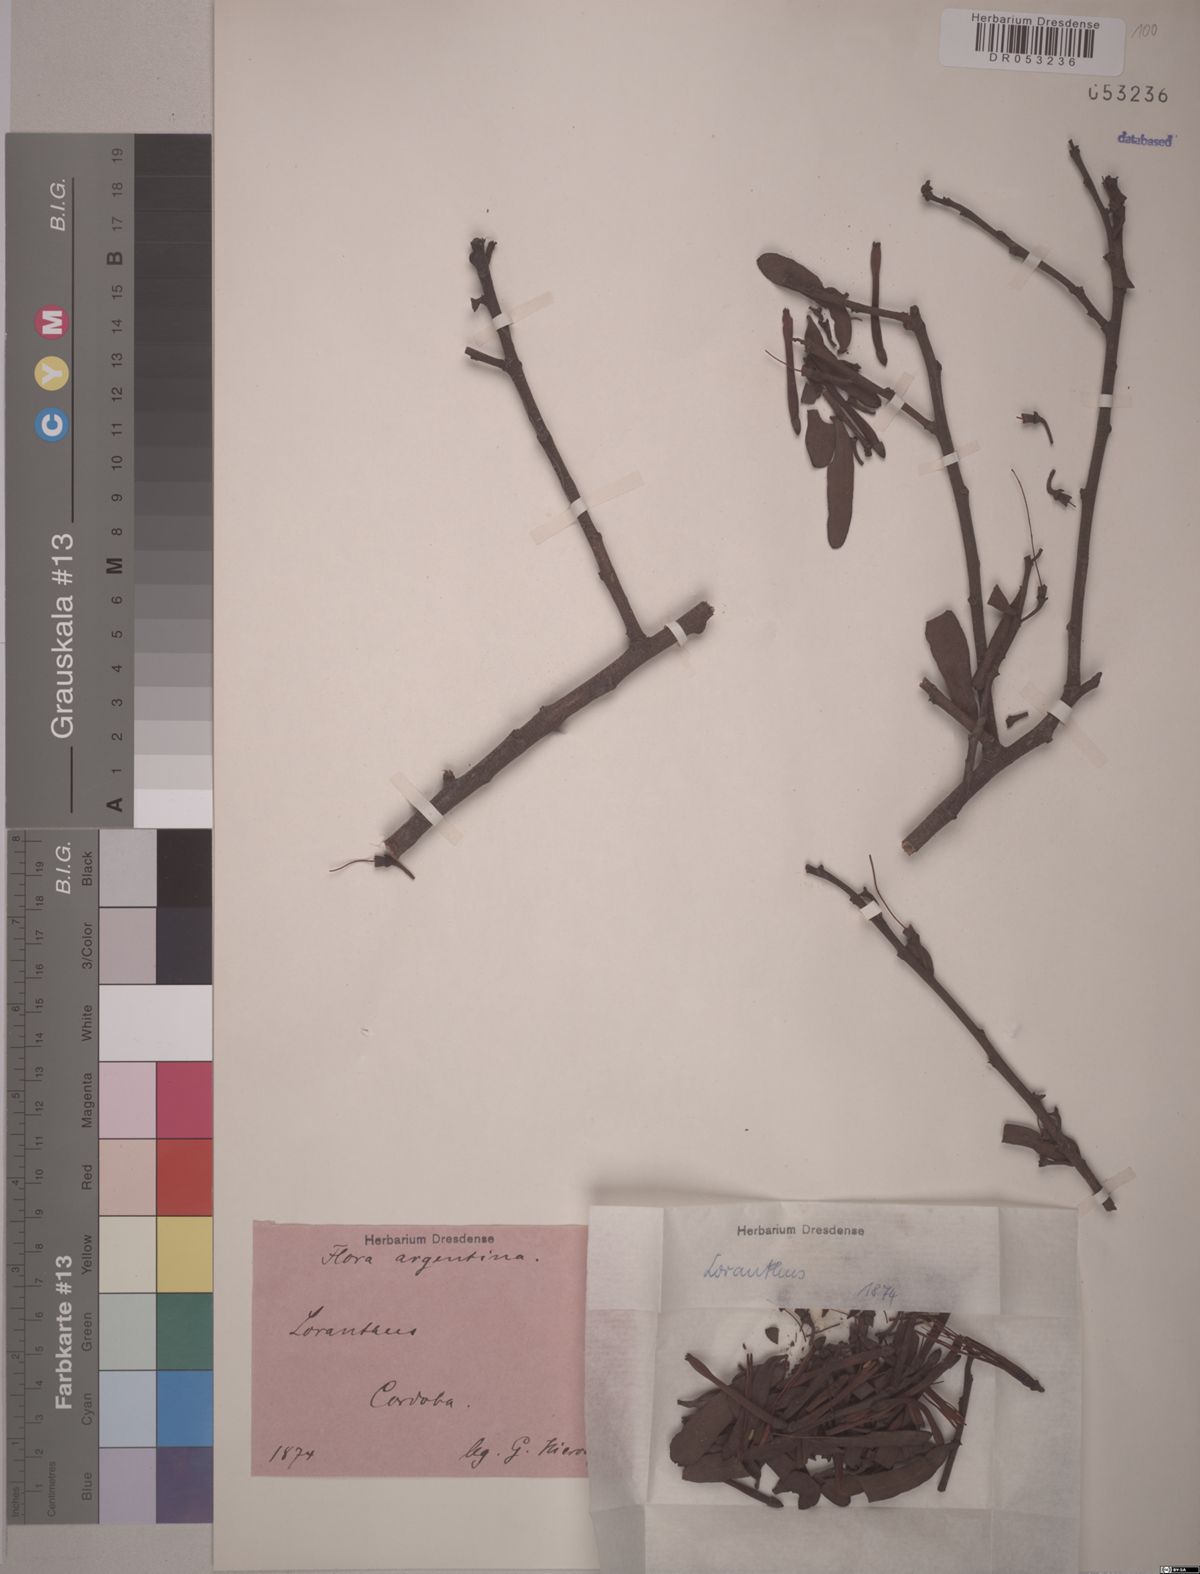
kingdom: Plantae
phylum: Tracheophyta
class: Magnoliopsida
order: Santalales
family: Loranthaceae
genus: Loranthus
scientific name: Loranthus
